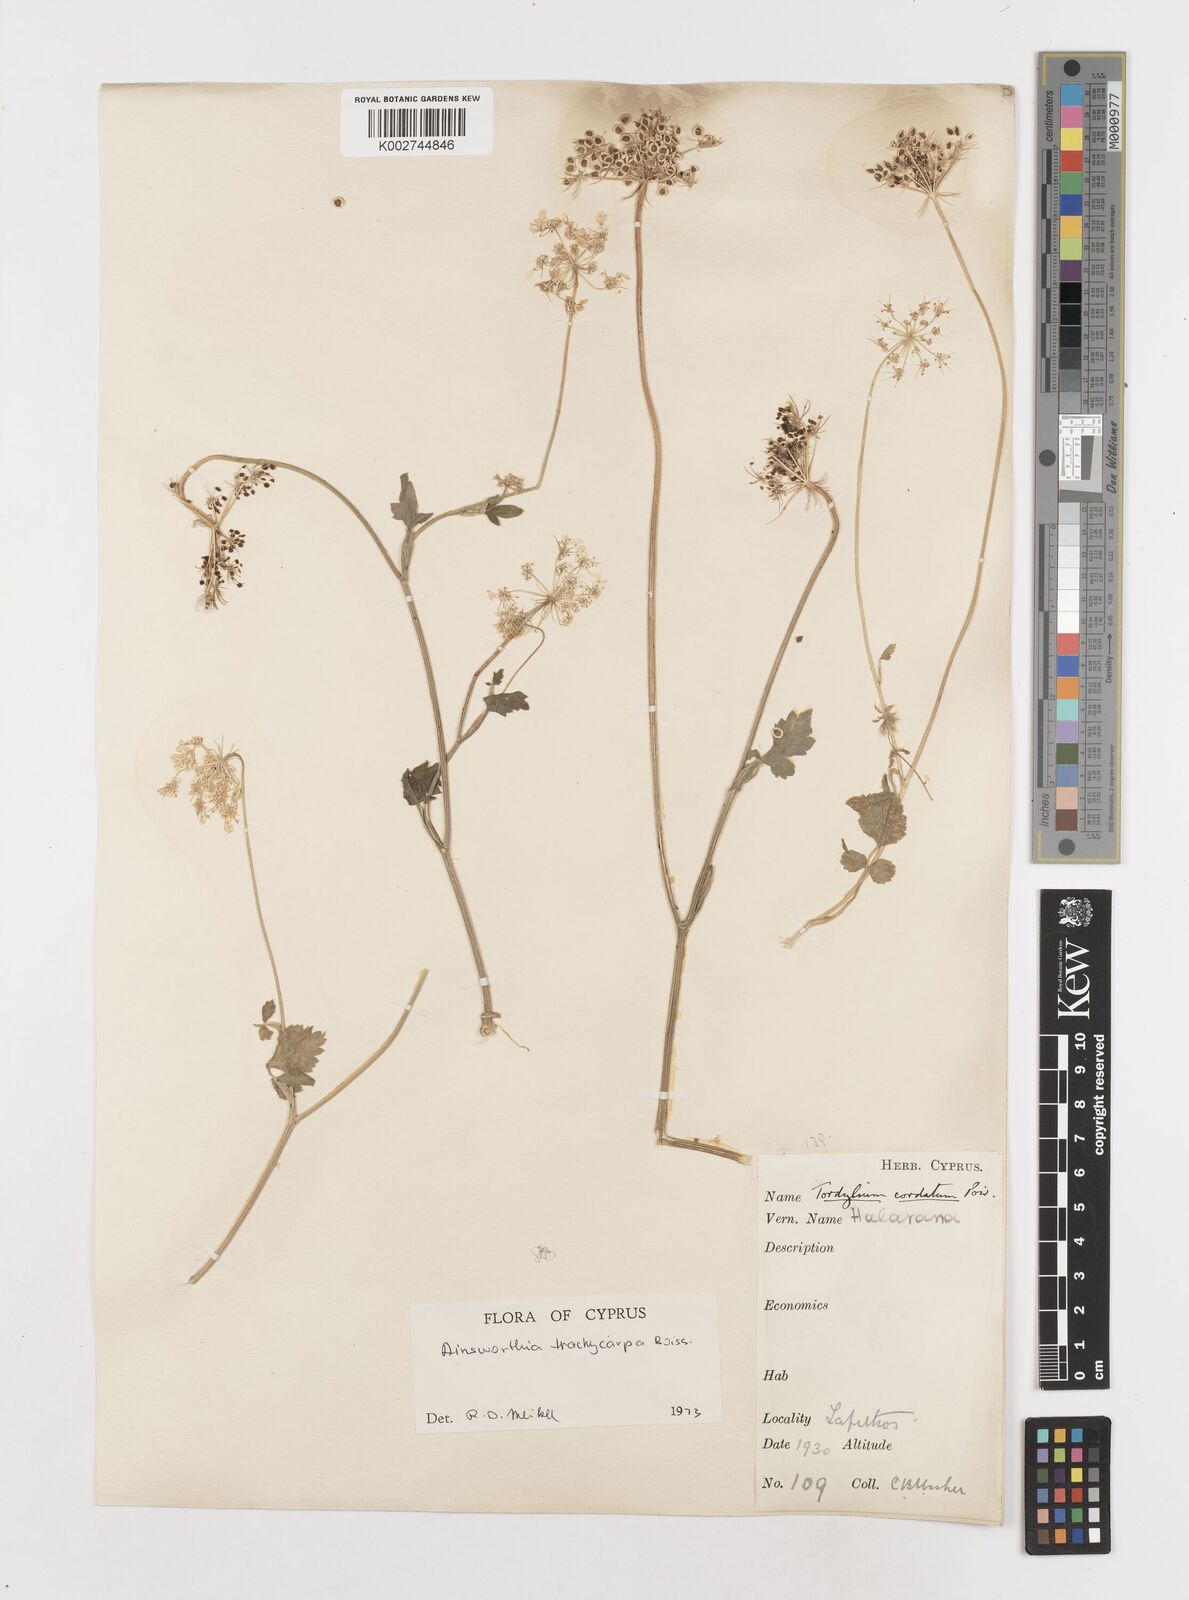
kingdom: Plantae
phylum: Tracheophyta
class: Magnoliopsida
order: Apiales
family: Apiaceae
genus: Ainsworthia
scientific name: Ainsworthia trachycarpa
